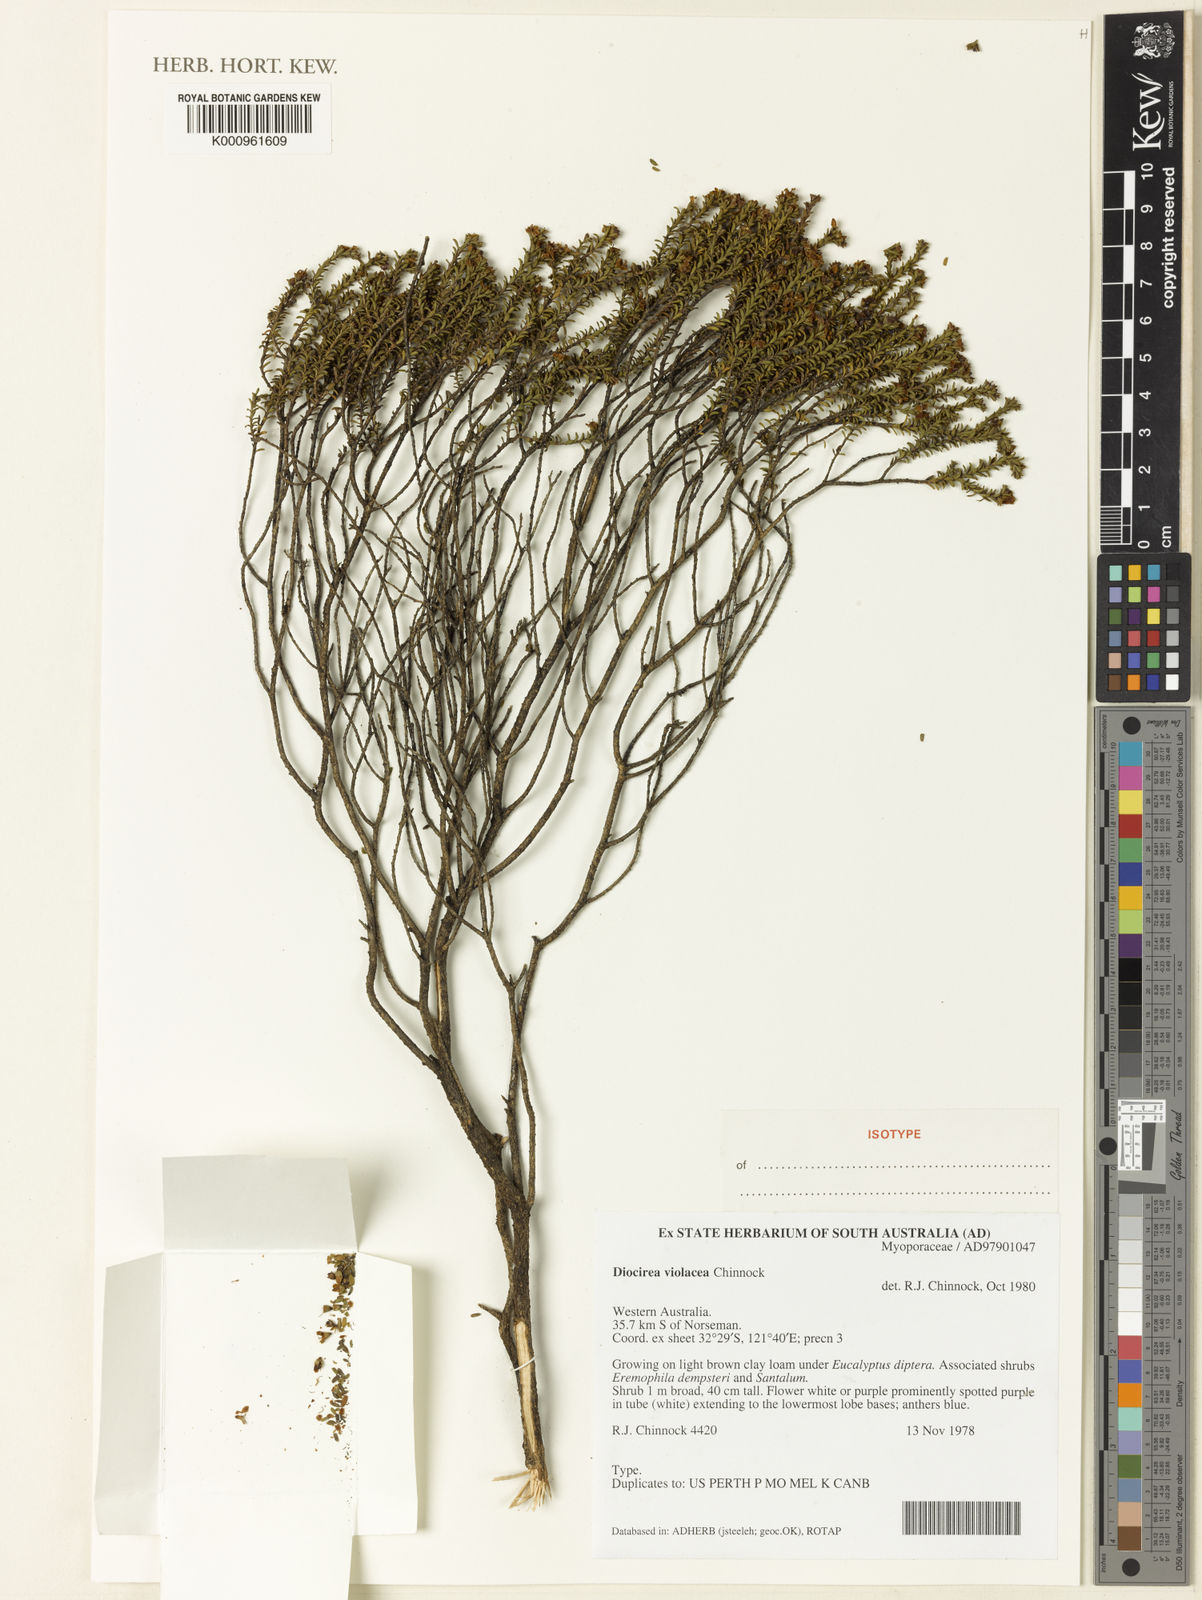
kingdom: Plantae
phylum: Tracheophyta
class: Magnoliopsida
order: Lamiales
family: Scrophulariaceae
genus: Eremophila
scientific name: Eremophila violacea
